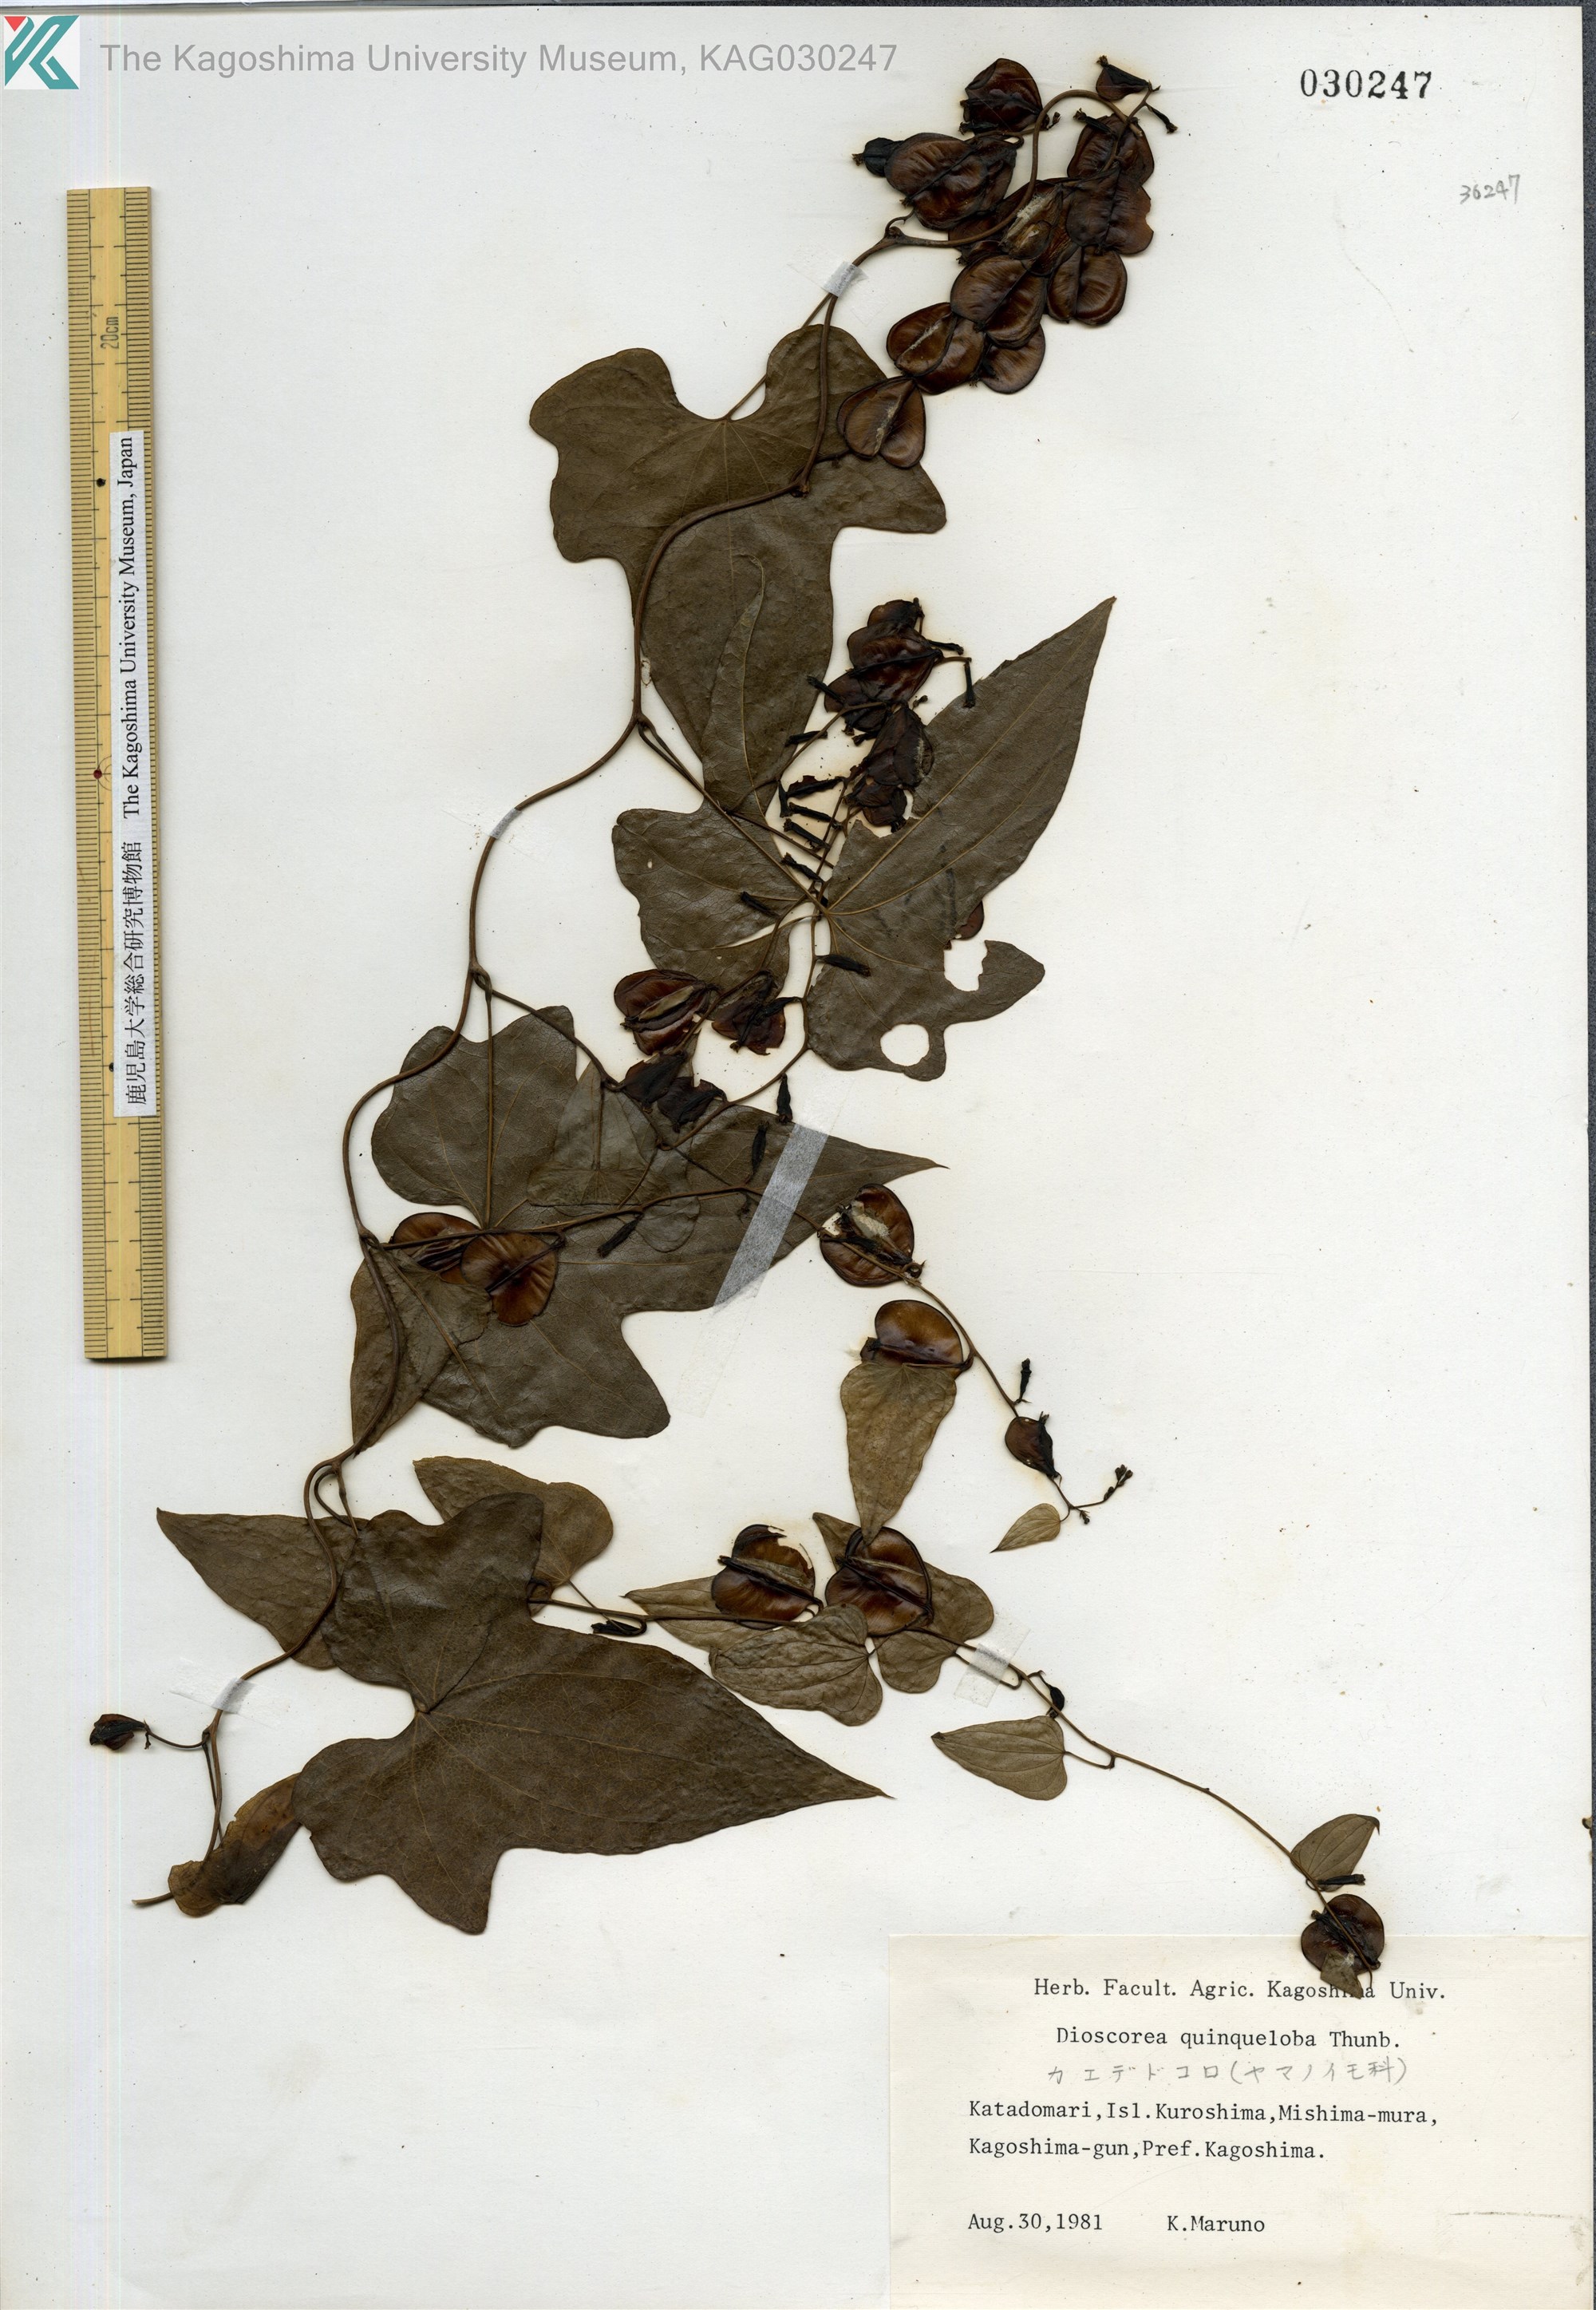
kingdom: Plantae
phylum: Tracheophyta
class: Liliopsida
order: Dioscoreales
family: Dioscoreaceae
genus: Dioscorea
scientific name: Dioscorea quinquelobata
